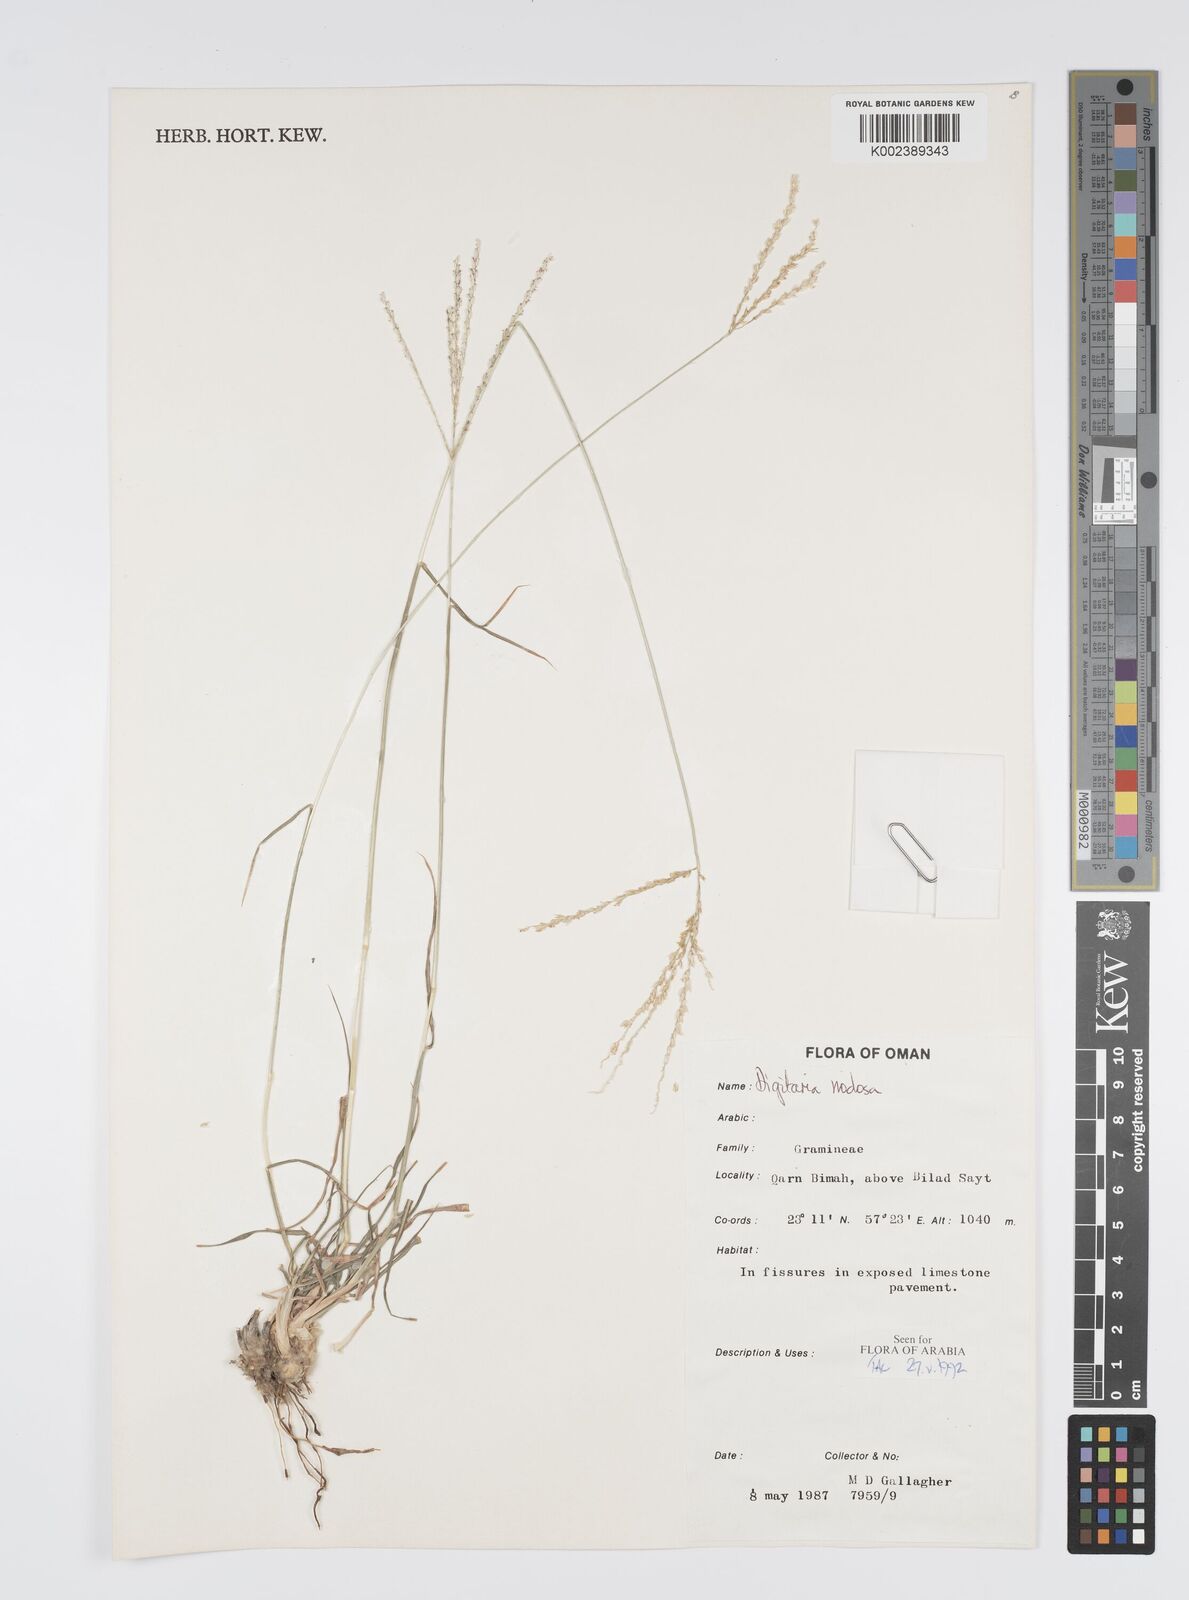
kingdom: Plantae
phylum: Tracheophyta
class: Liliopsida
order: Poales
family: Poaceae
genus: Digitaria
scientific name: Digitaria nodosa
